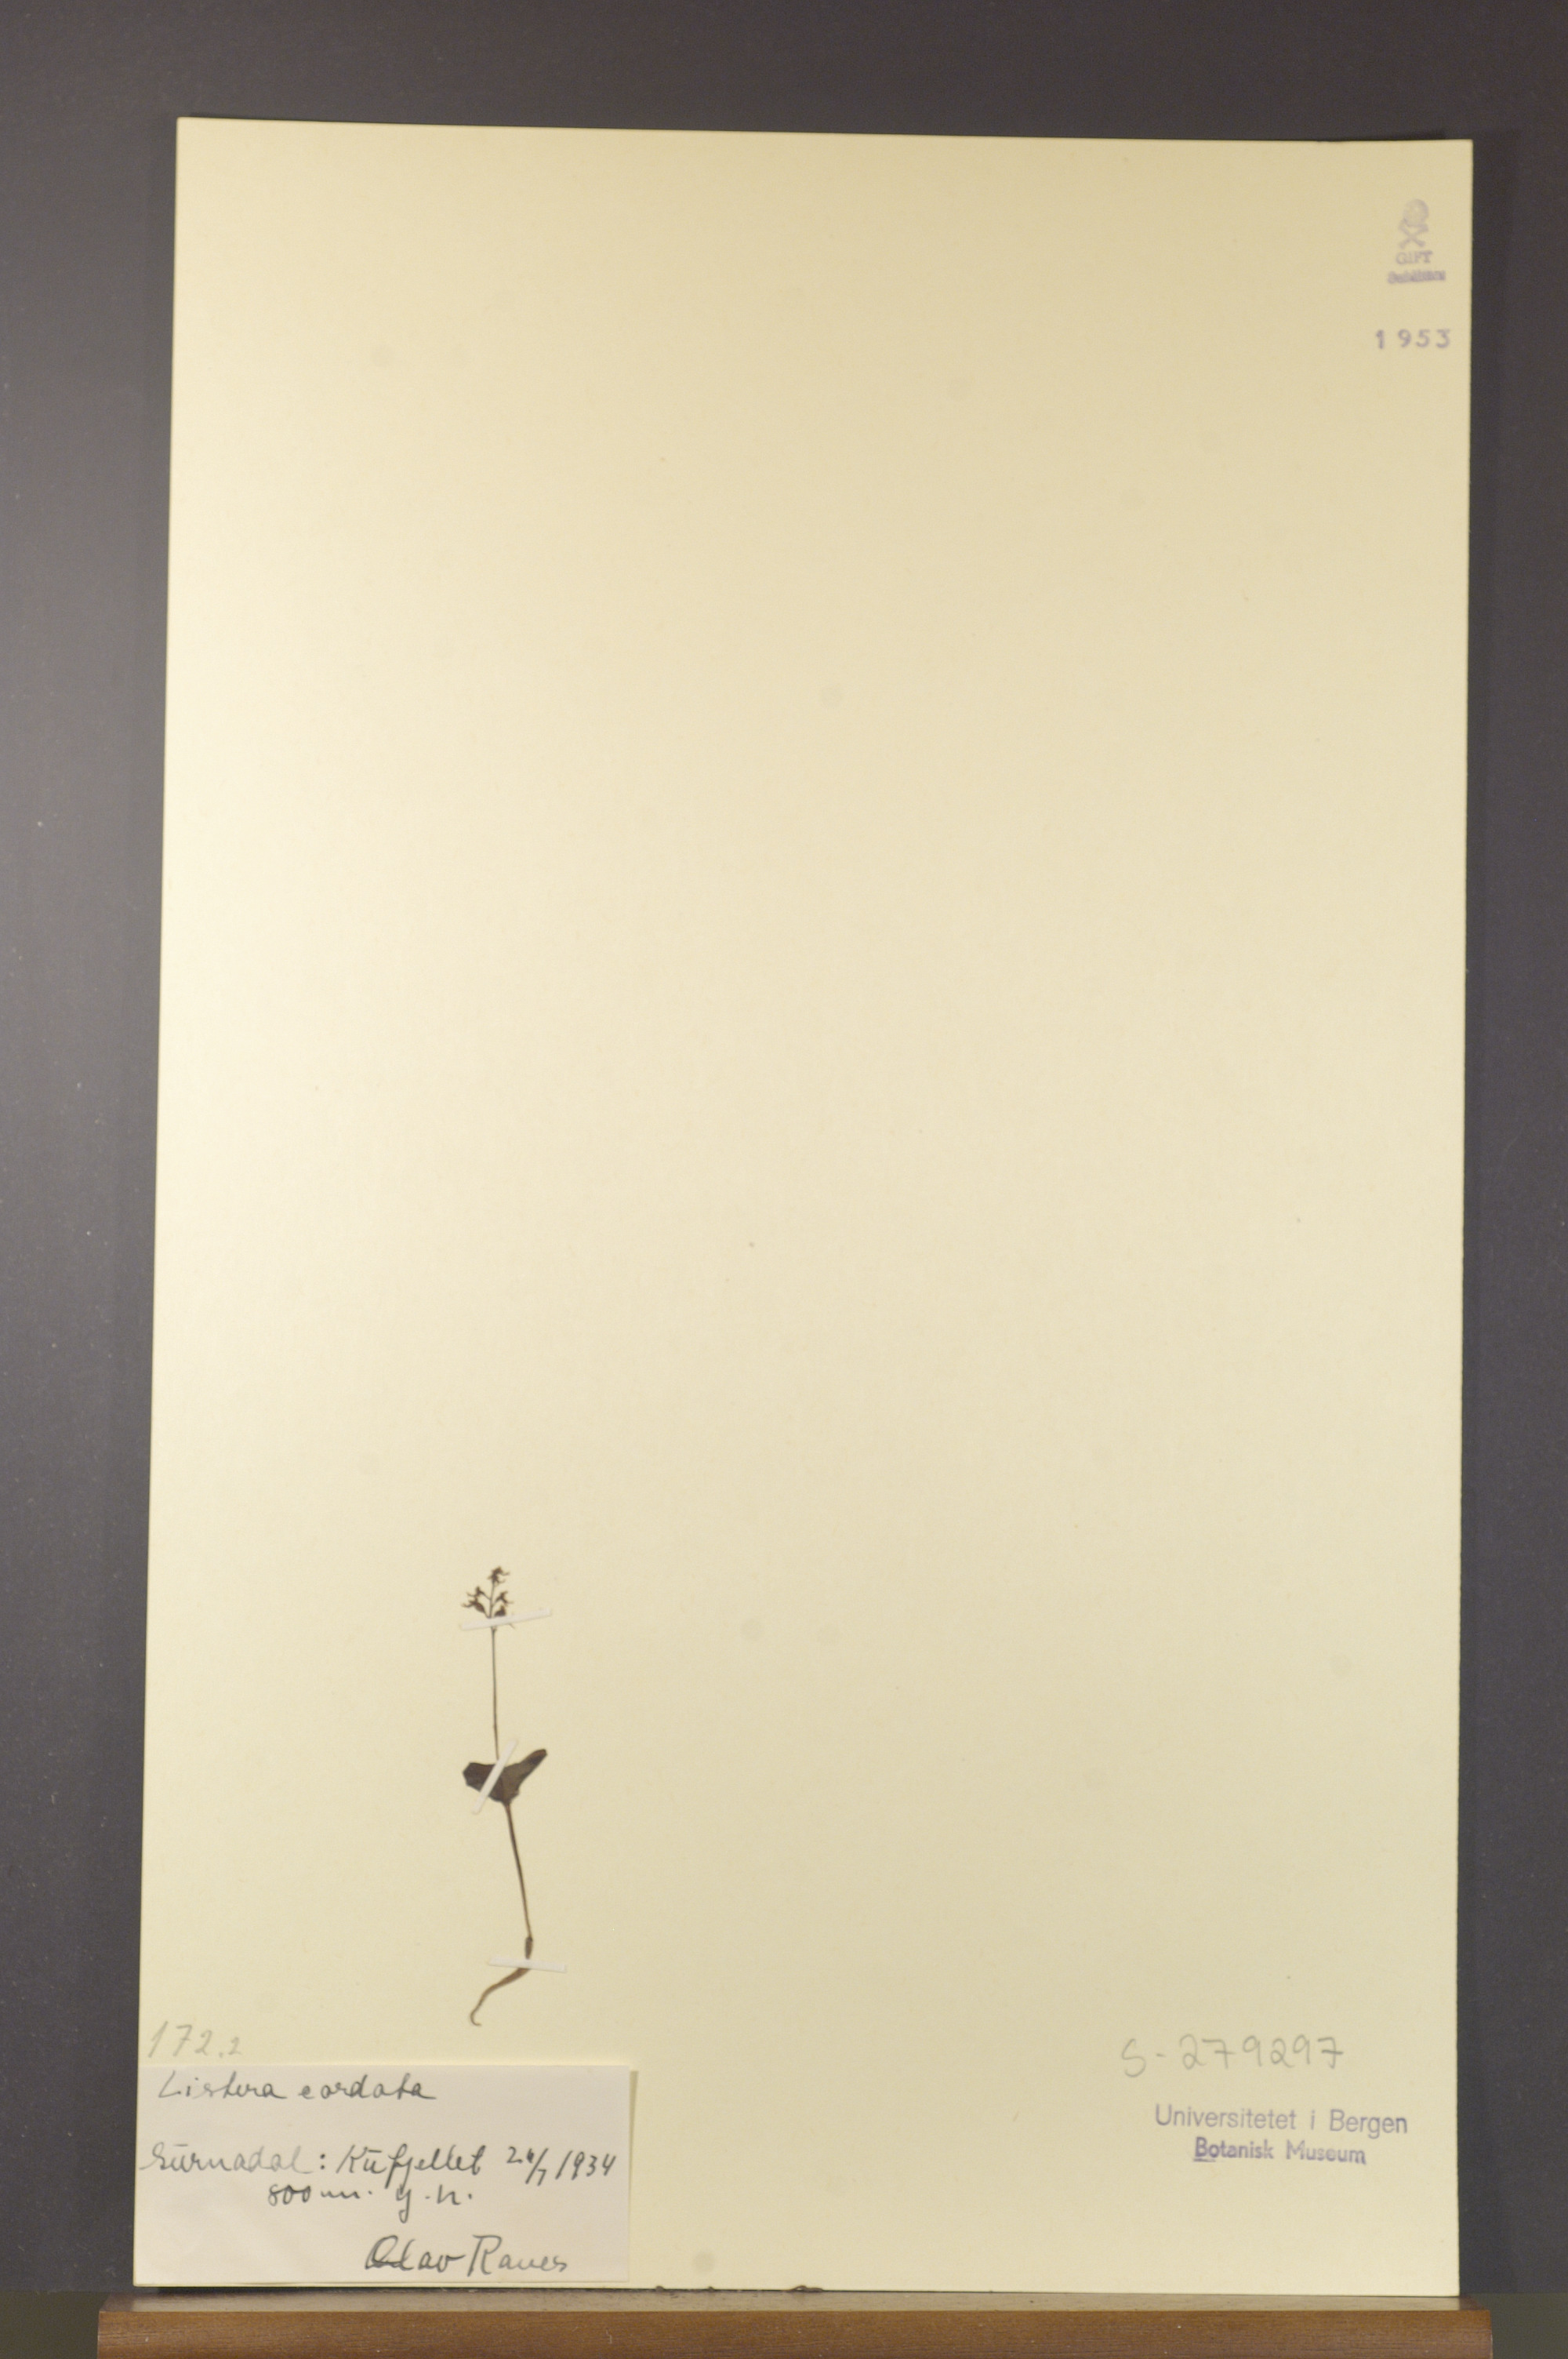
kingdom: Plantae
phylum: Tracheophyta
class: Liliopsida
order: Asparagales
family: Orchidaceae
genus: Neottia
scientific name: Neottia cordata
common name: Lesser twayblade
